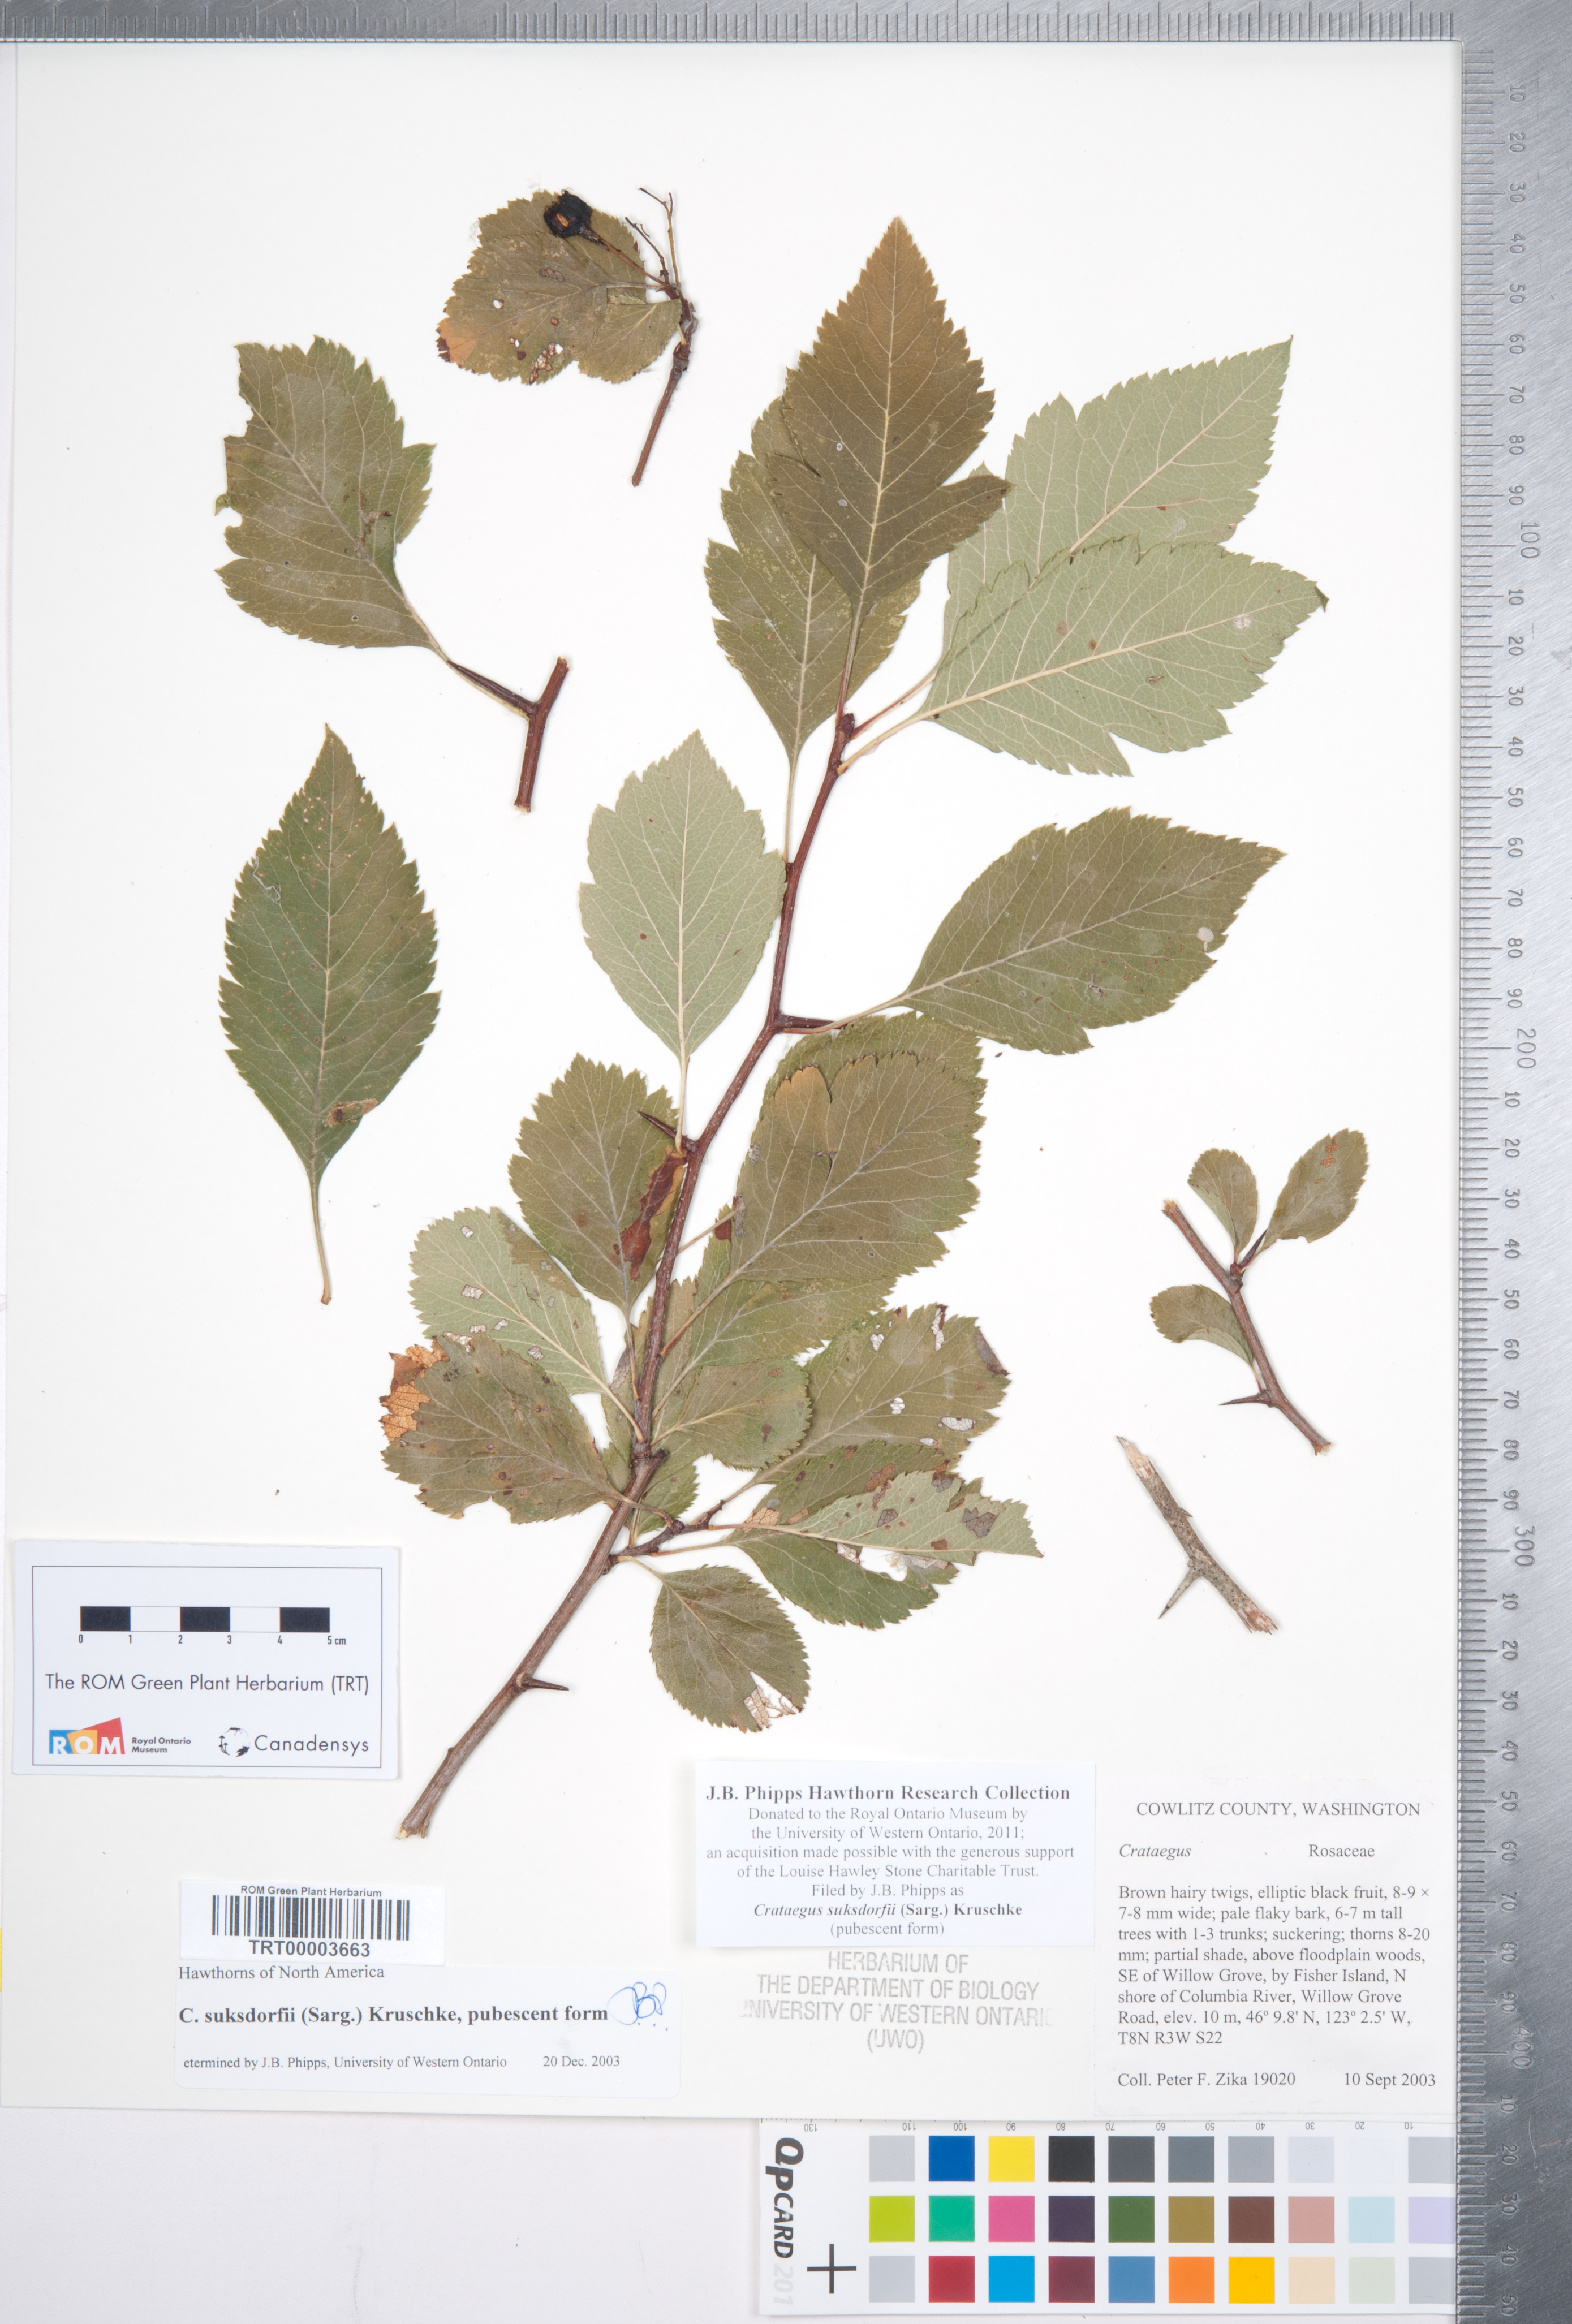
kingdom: Plantae
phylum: Tracheophyta
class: Magnoliopsida
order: Rosales
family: Rosaceae
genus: Crataegus
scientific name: Crataegus gaylussacia
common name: Huckleberry hawthorn
